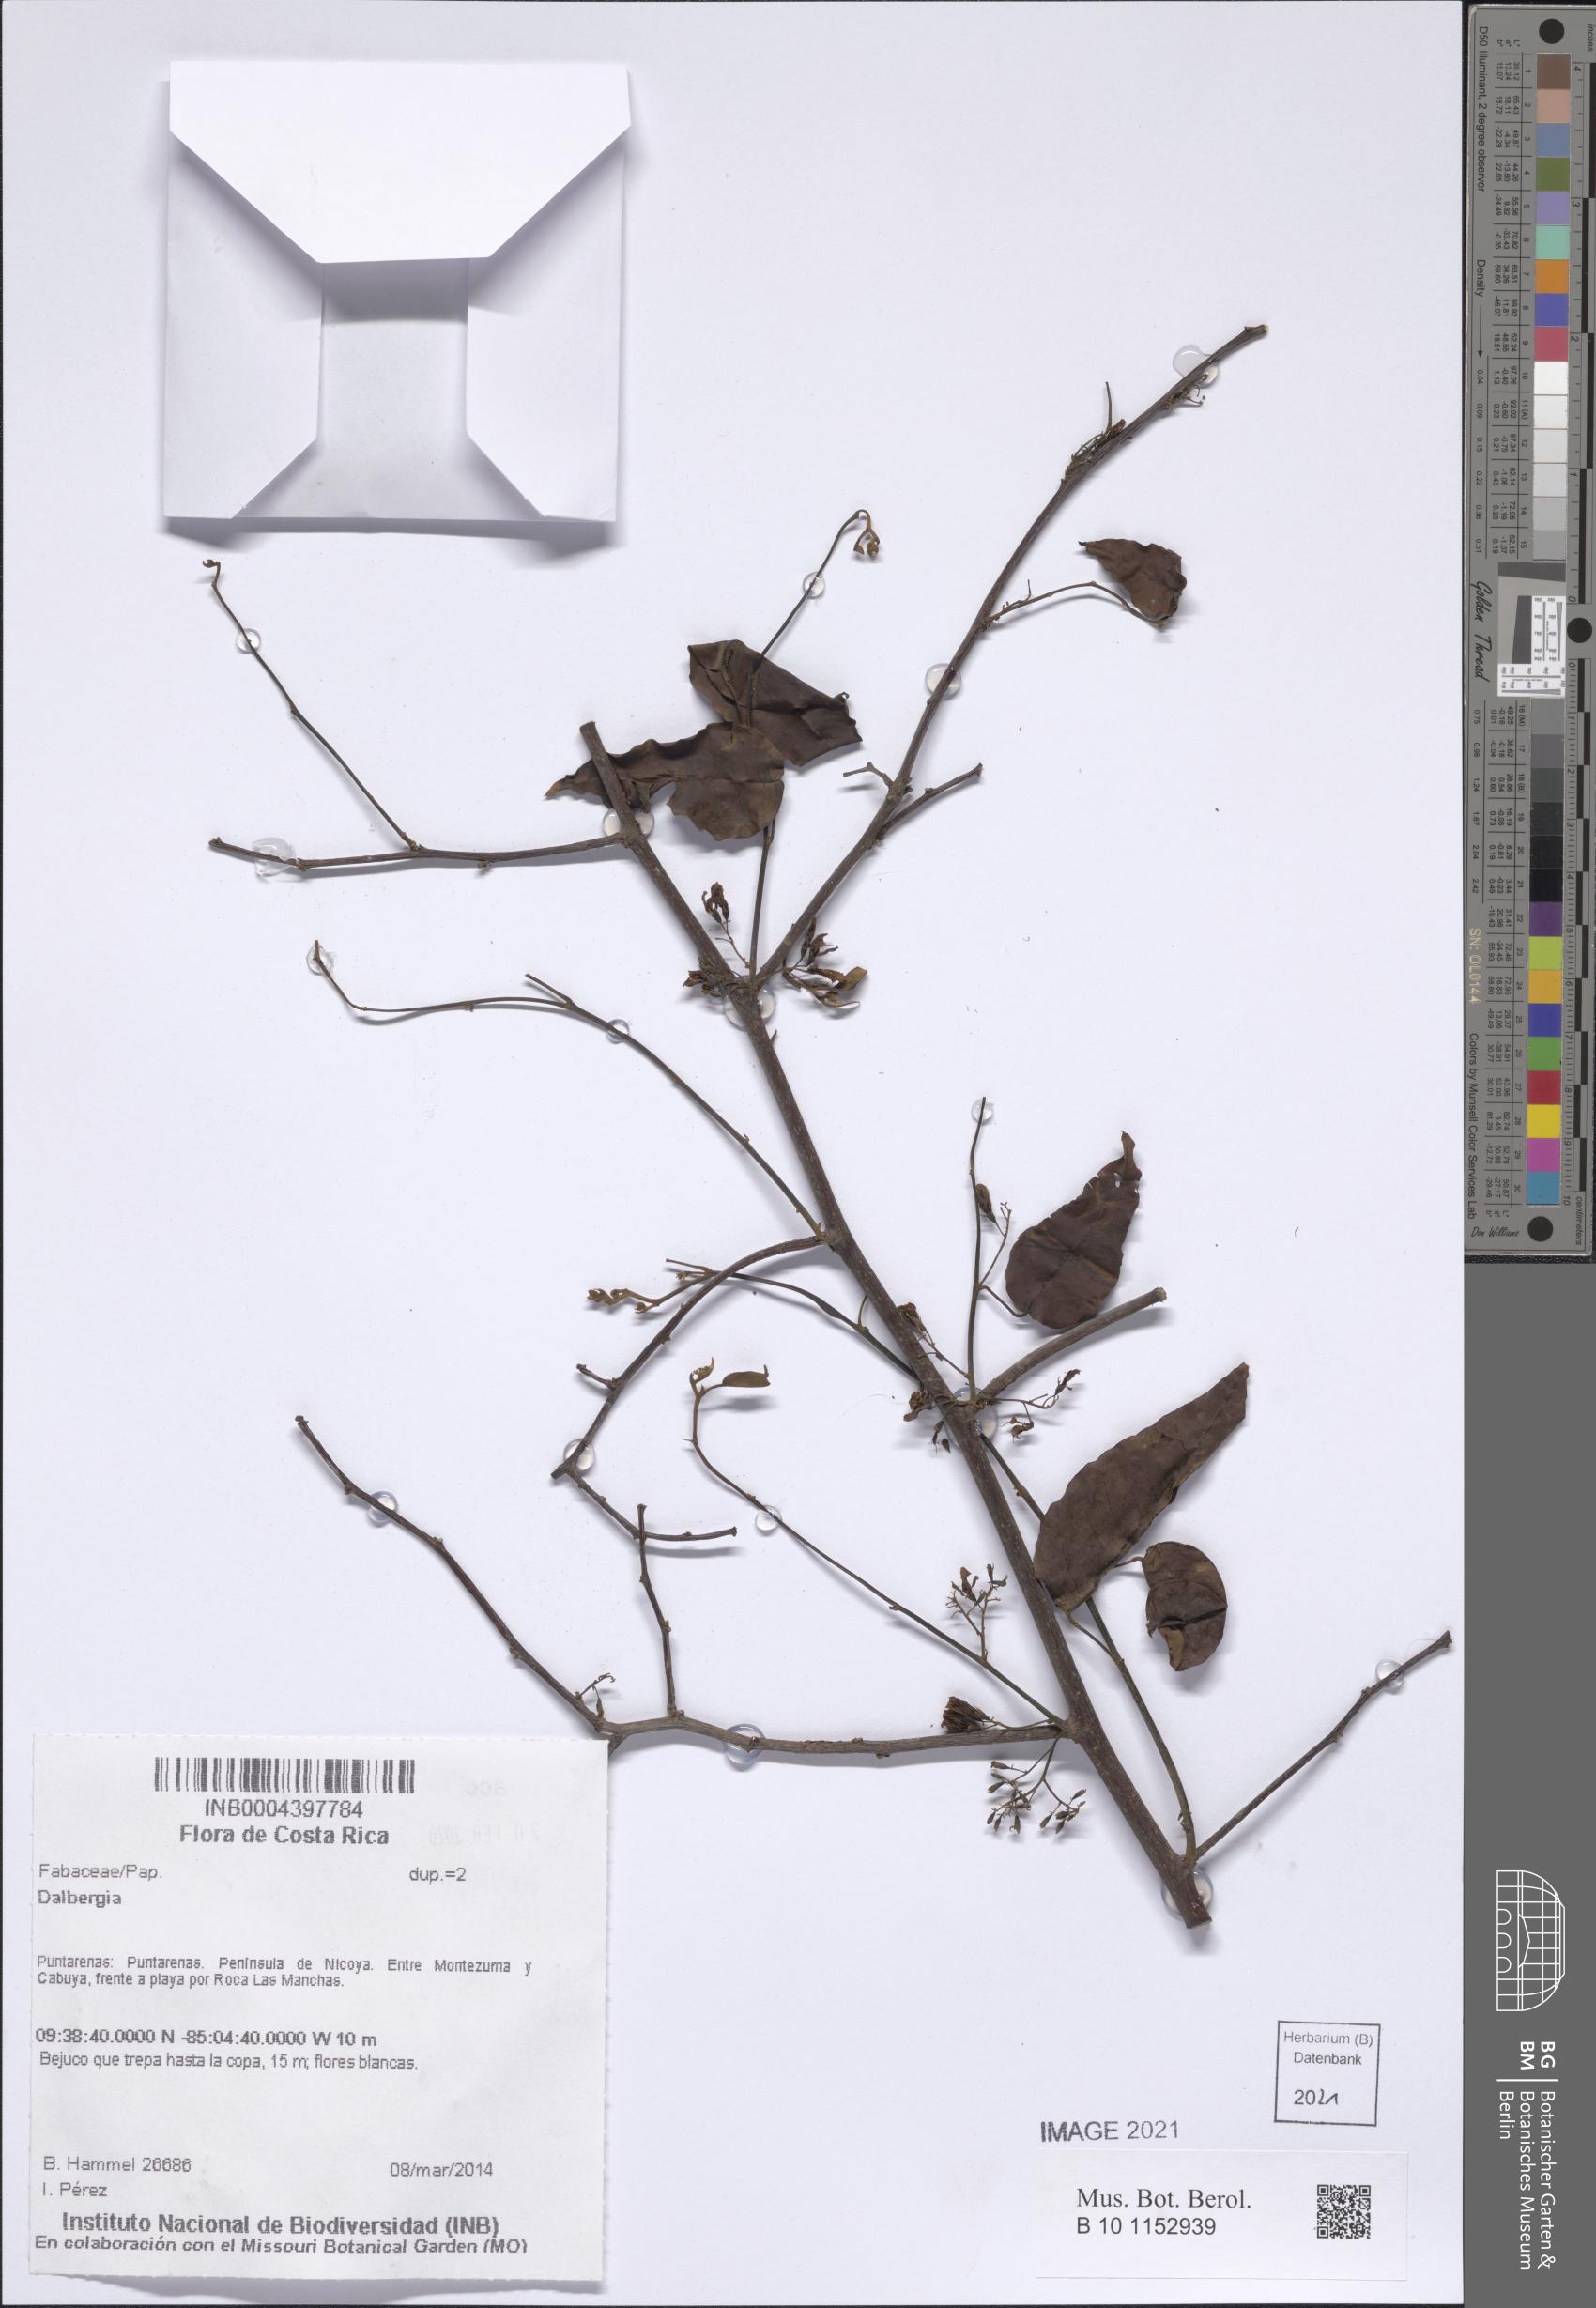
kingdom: Plantae
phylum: Tracheophyta
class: Magnoliopsida
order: Fabales
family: Fabaceae
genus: Dalbergia
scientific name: Dalbergia
